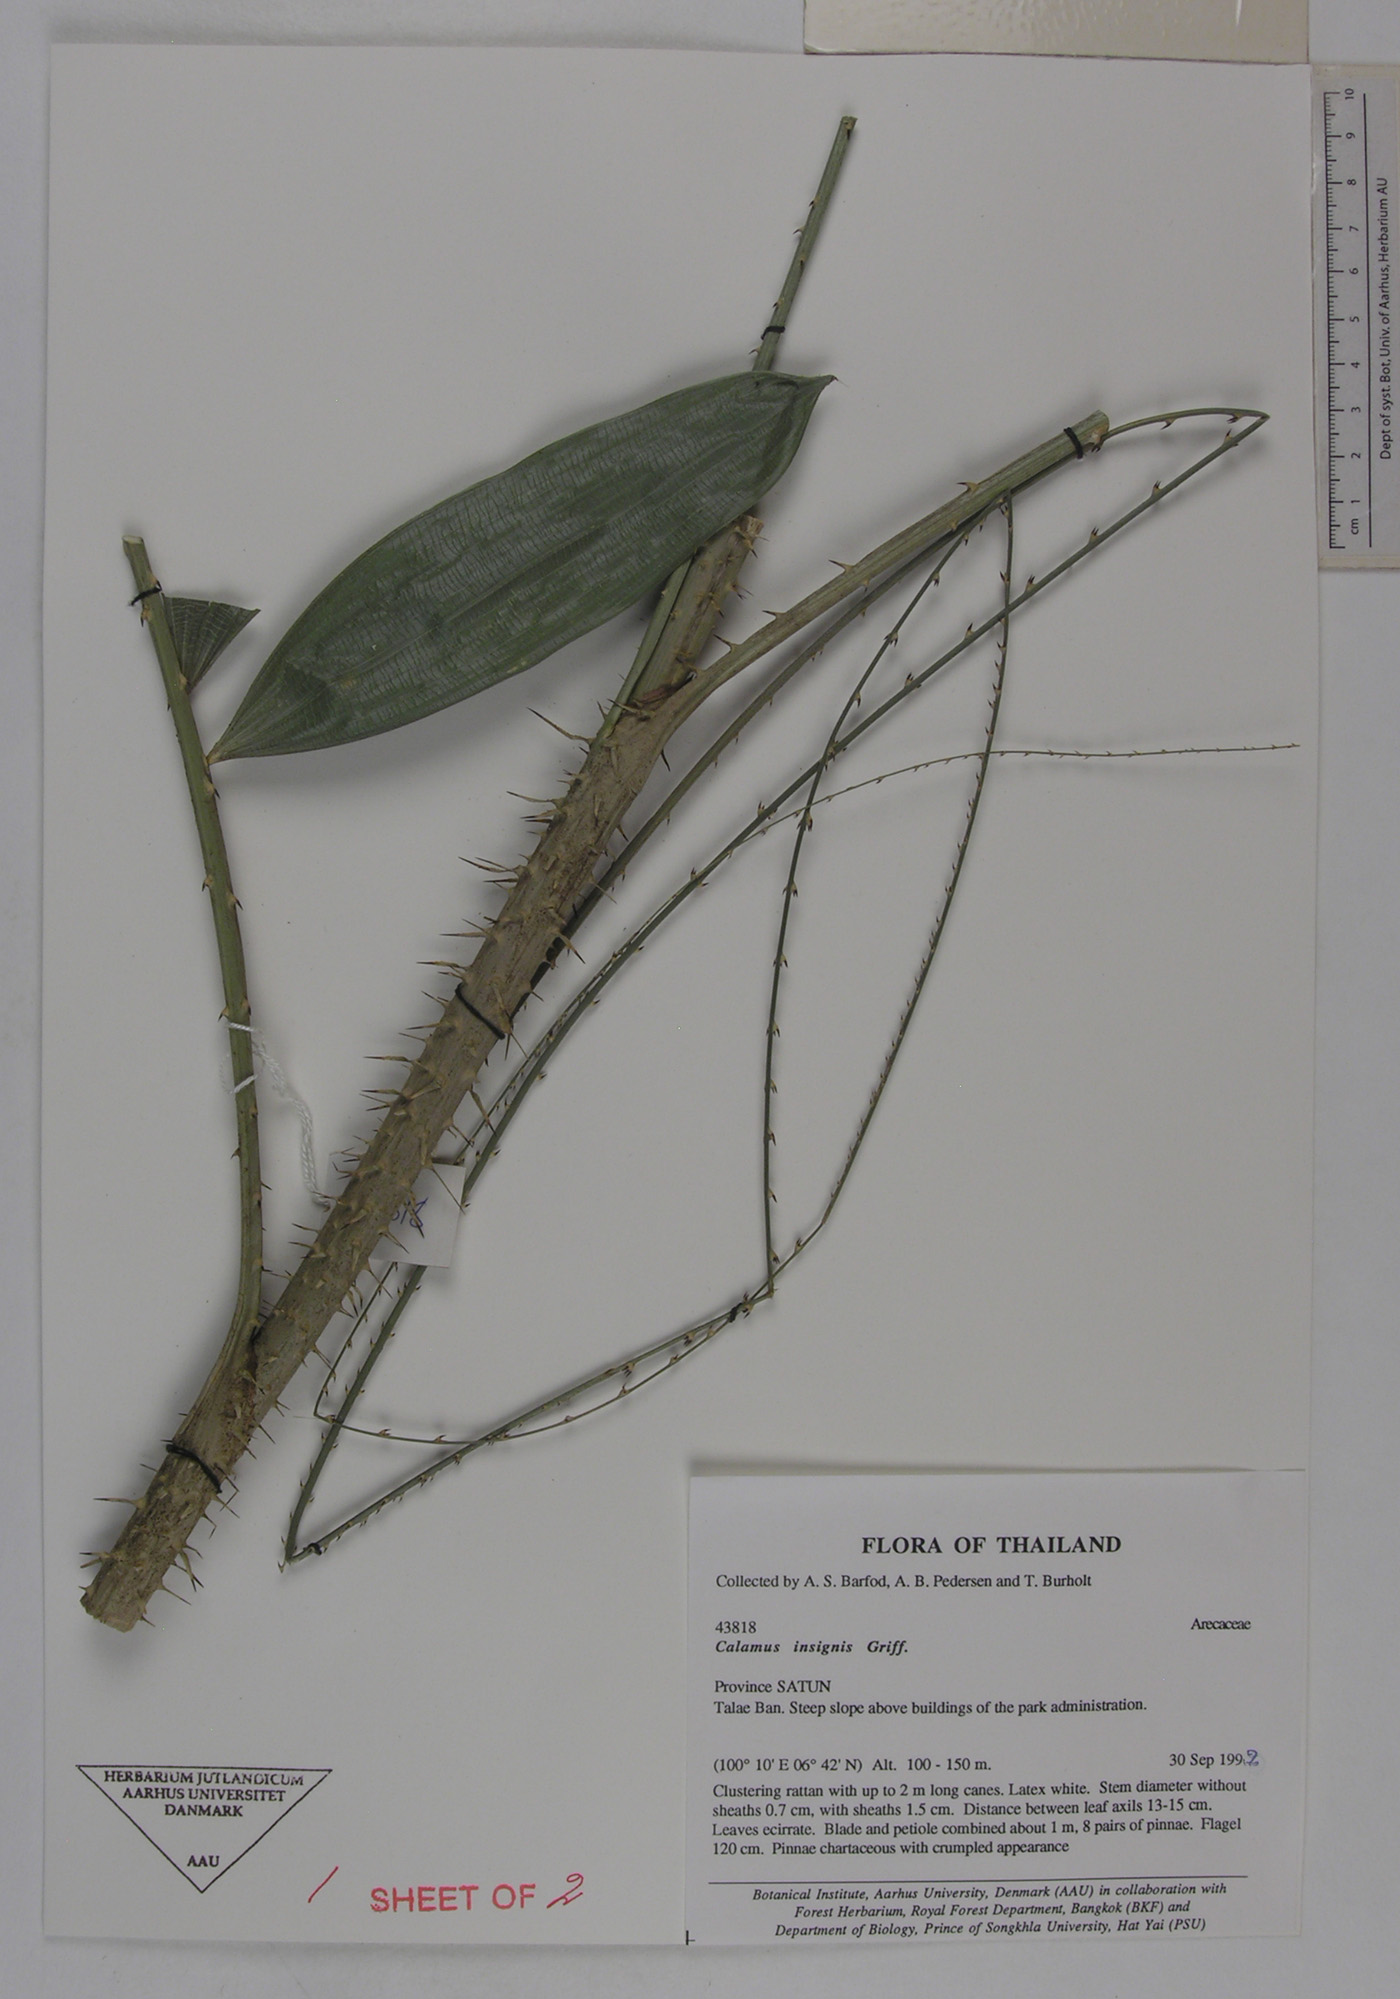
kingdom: Plantae
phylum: Tracheophyta
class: Liliopsida
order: Arecales
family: Arecaceae
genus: Calamus
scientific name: Calamus insignis
